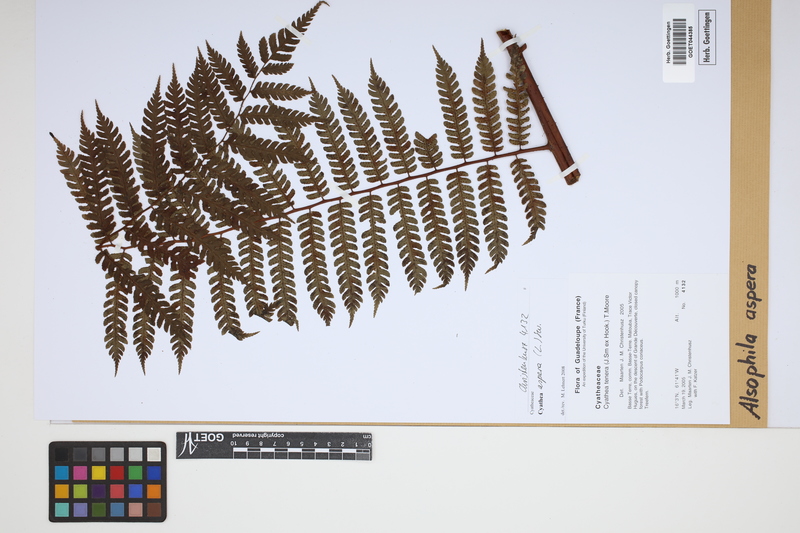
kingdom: Plantae
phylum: Tracheophyta
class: Polypodiopsida
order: Cyatheales
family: Cyatheaceae
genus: Cyathea
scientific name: Cyathea aspera
